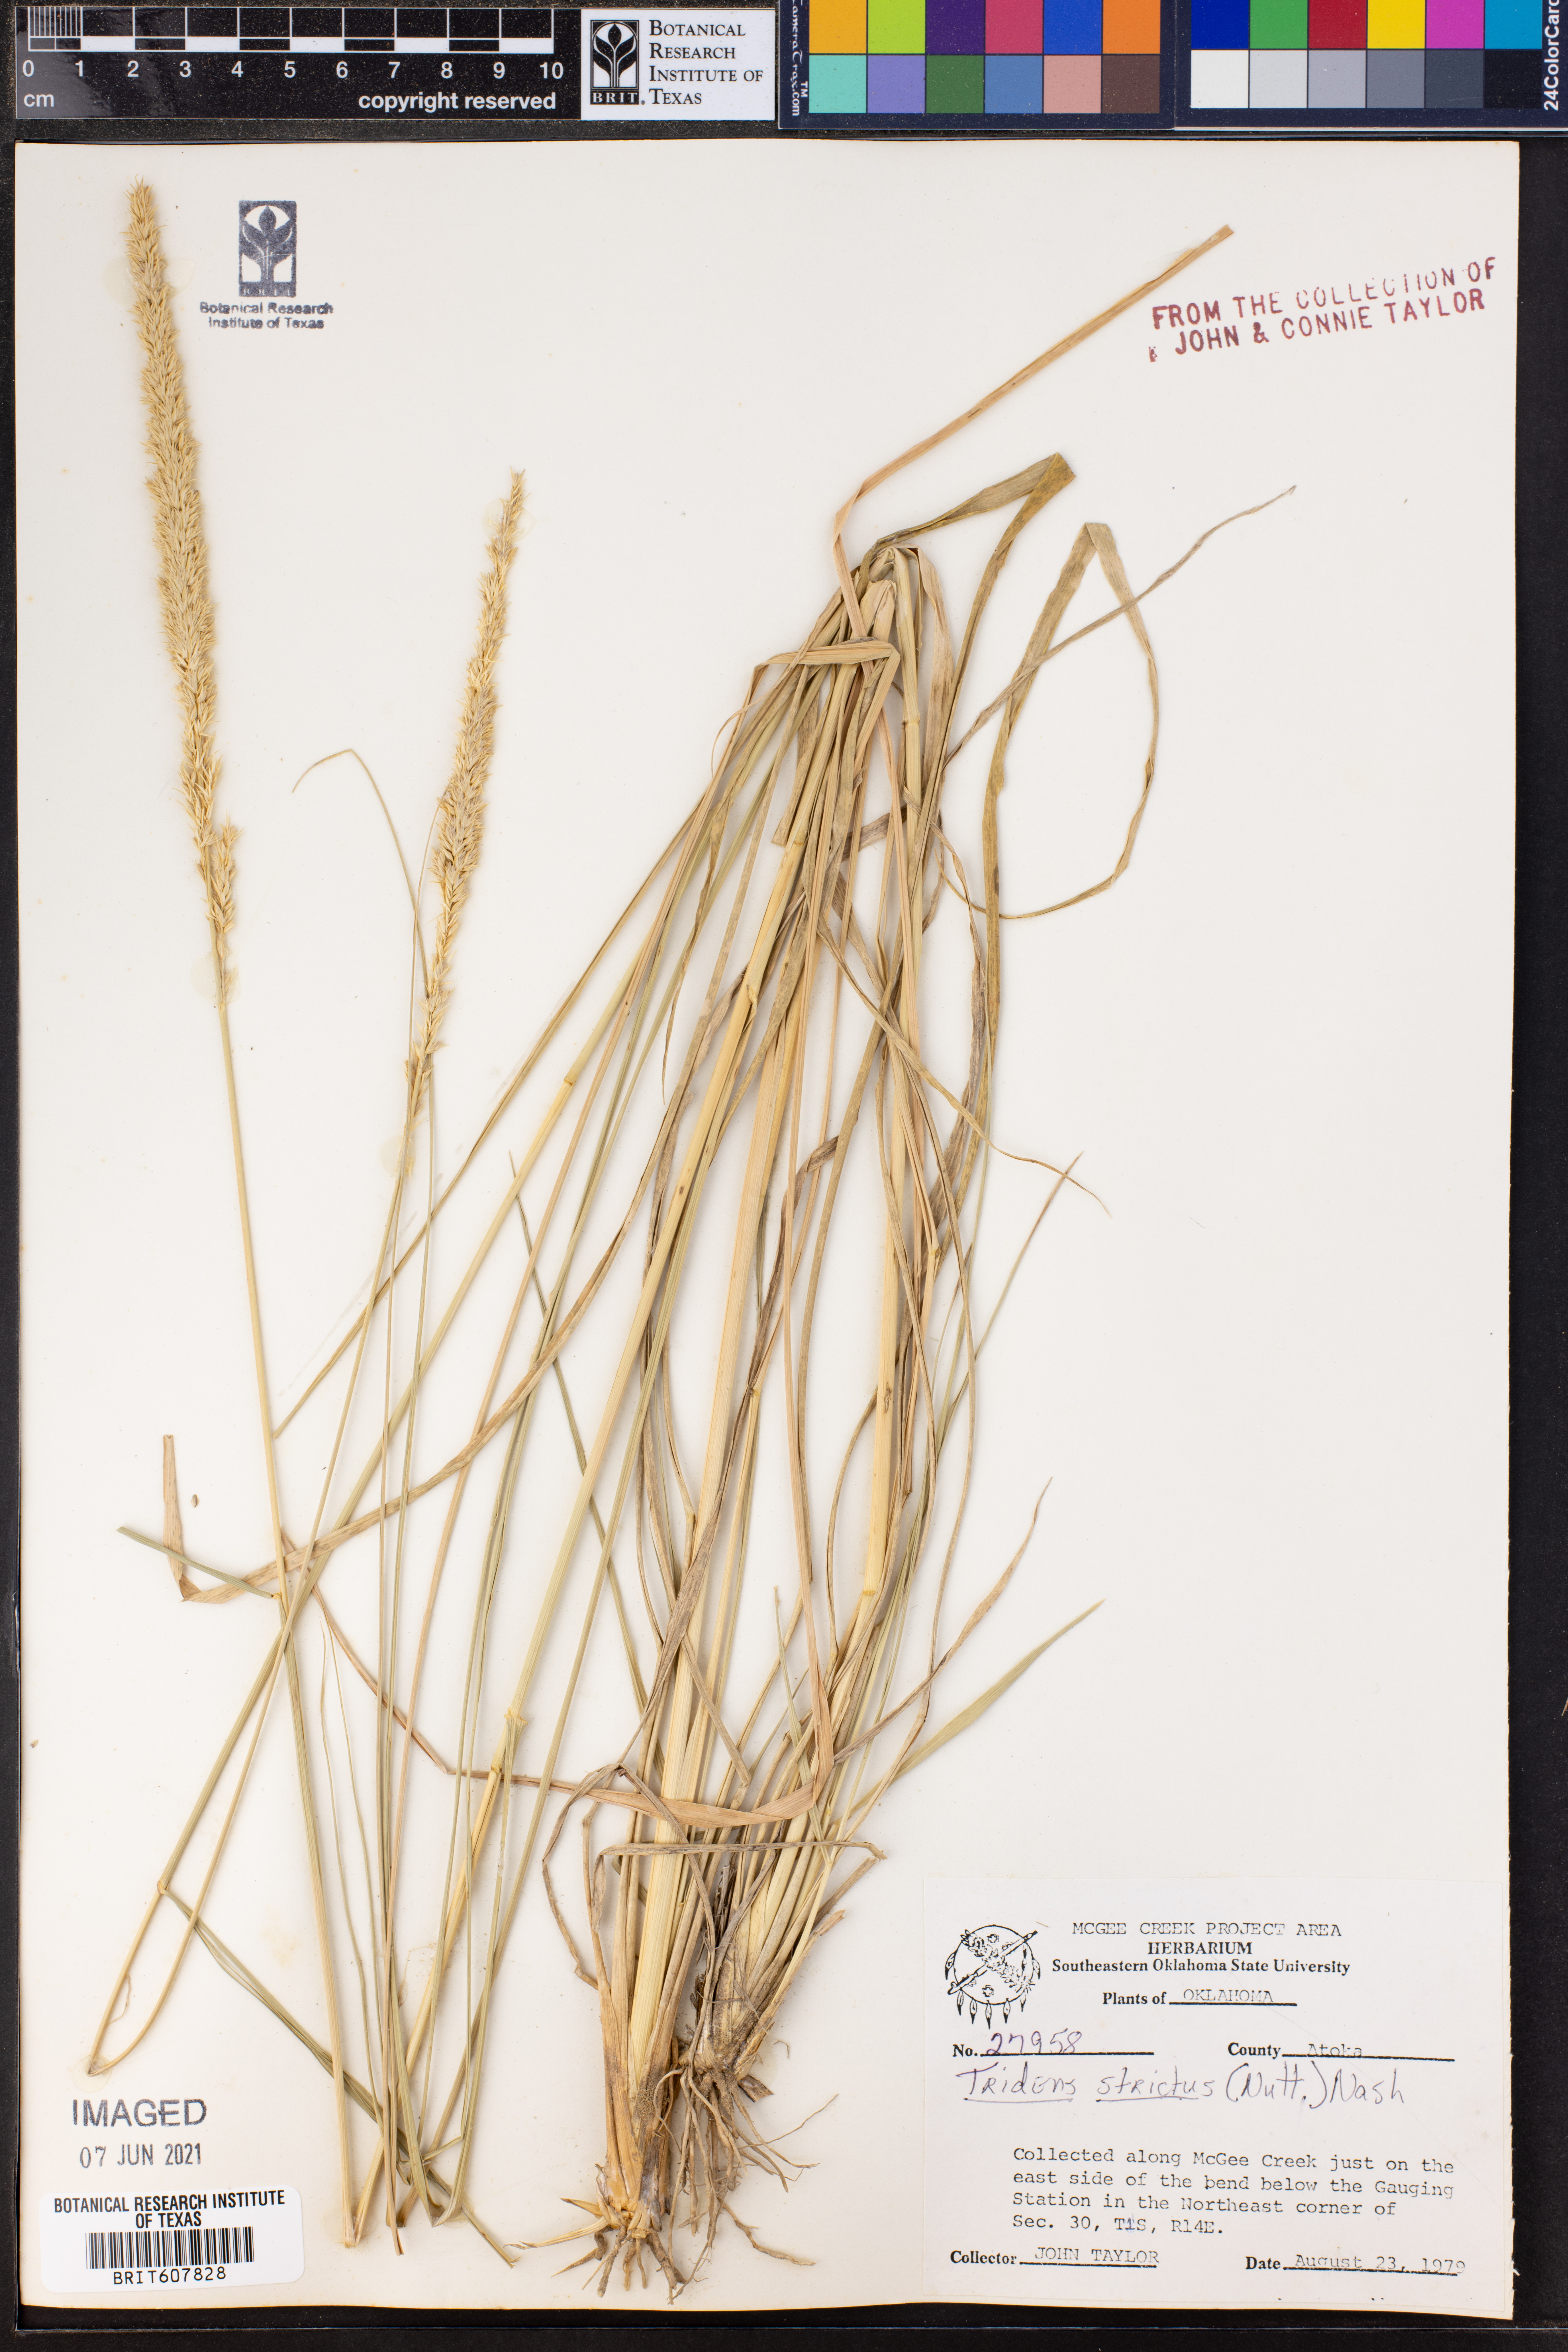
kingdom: Plantae
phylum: Tracheophyta
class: Liliopsida
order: Poales
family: Poaceae
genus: Tridens
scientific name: Tridens strictus
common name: Long-spike tridens
